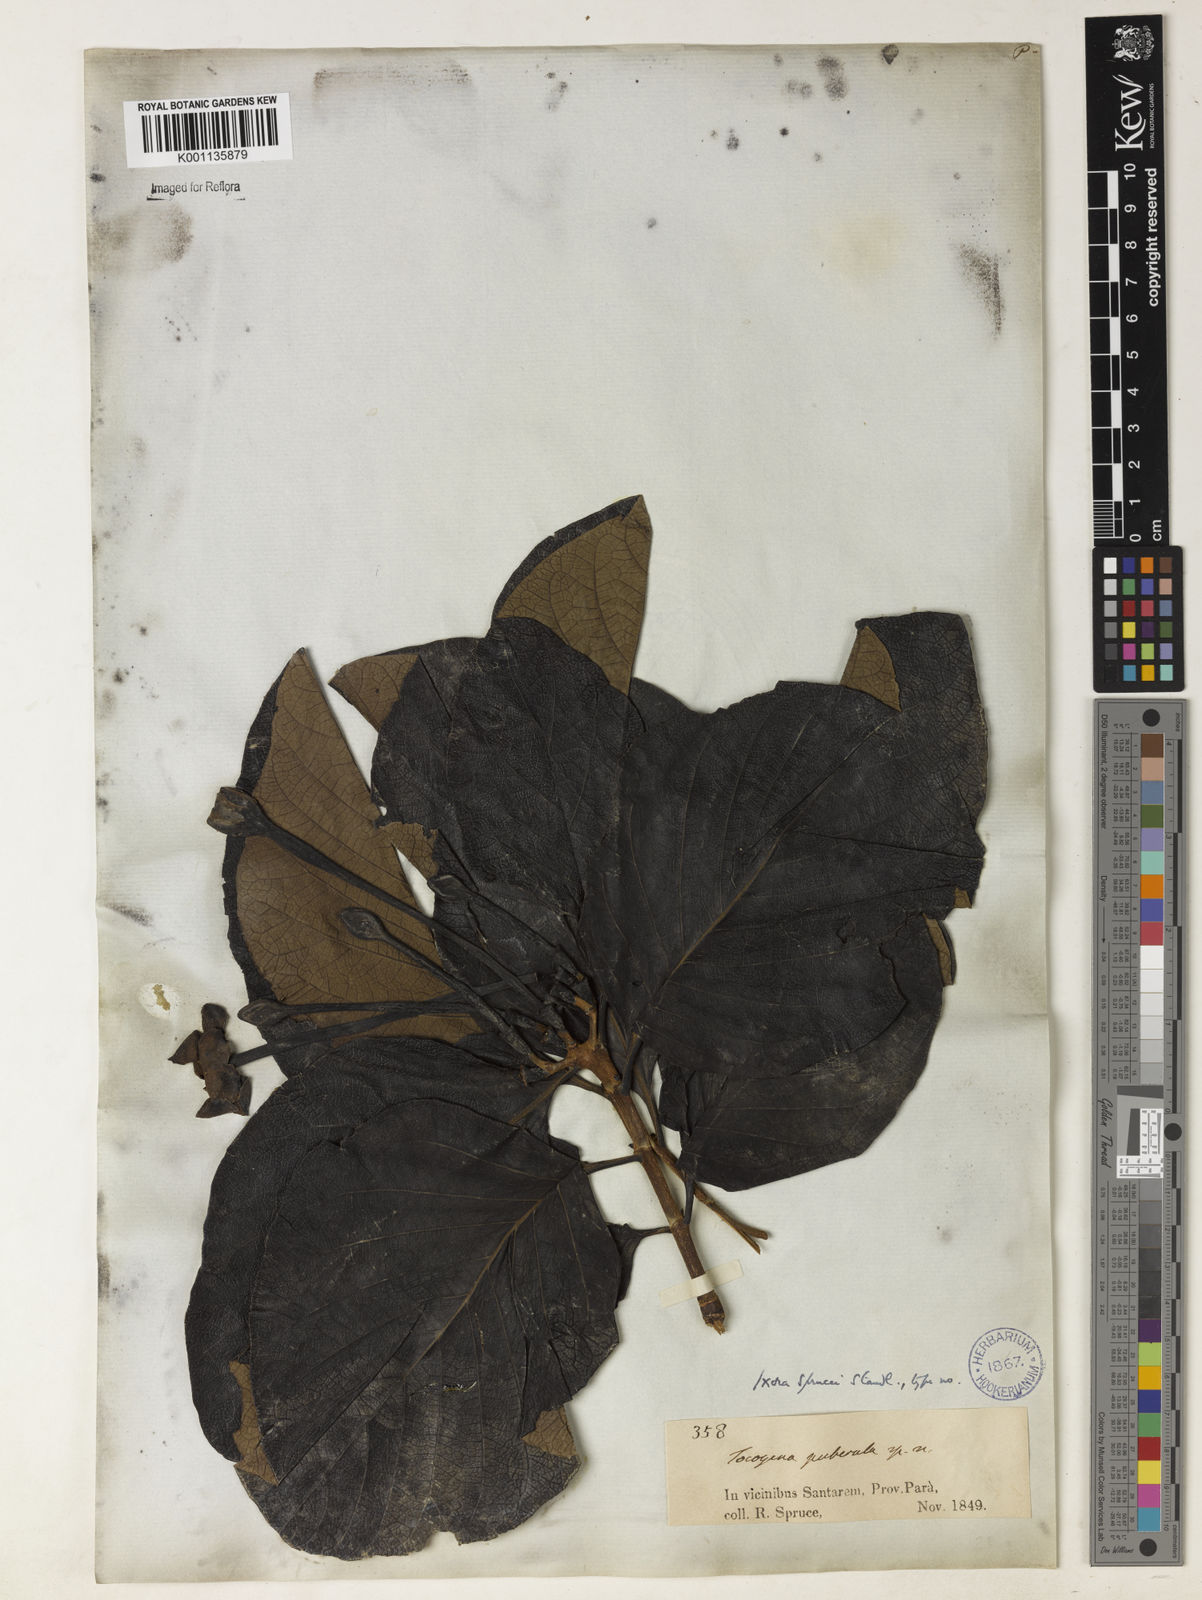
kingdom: Plantae
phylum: Tracheophyta
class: Magnoliopsida
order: Gentianales
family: Rubiaceae
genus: Tocoyena
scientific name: Tocoyena sprucei
